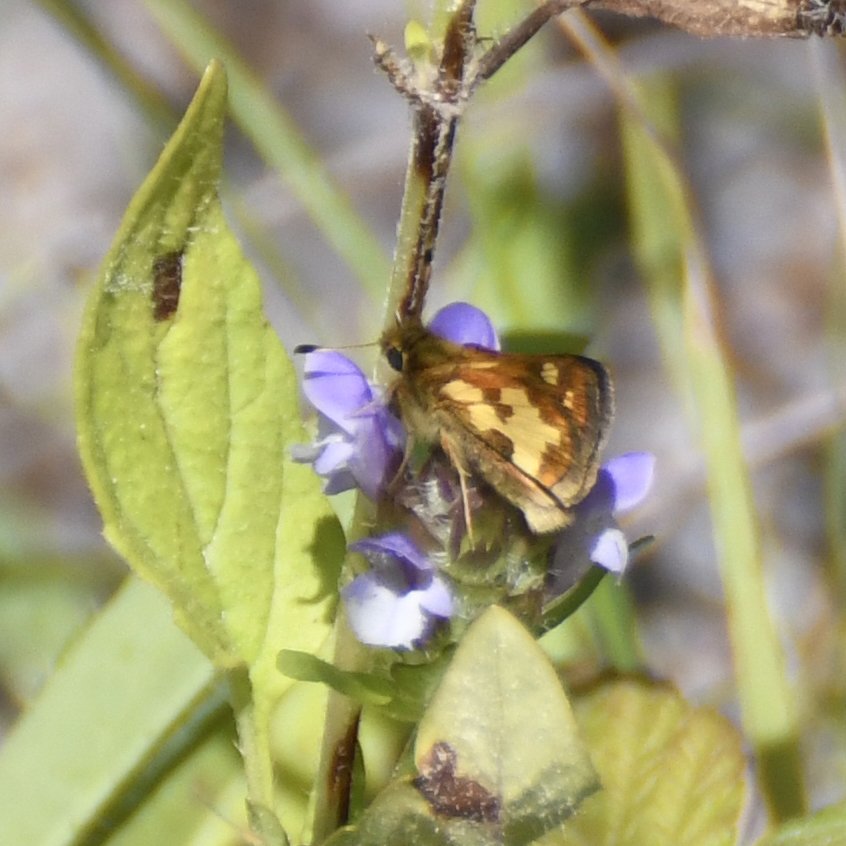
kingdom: Animalia
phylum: Arthropoda
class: Insecta
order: Lepidoptera
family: Hesperiidae
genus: Polites
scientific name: Polites coras
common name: Peck's Skipper
